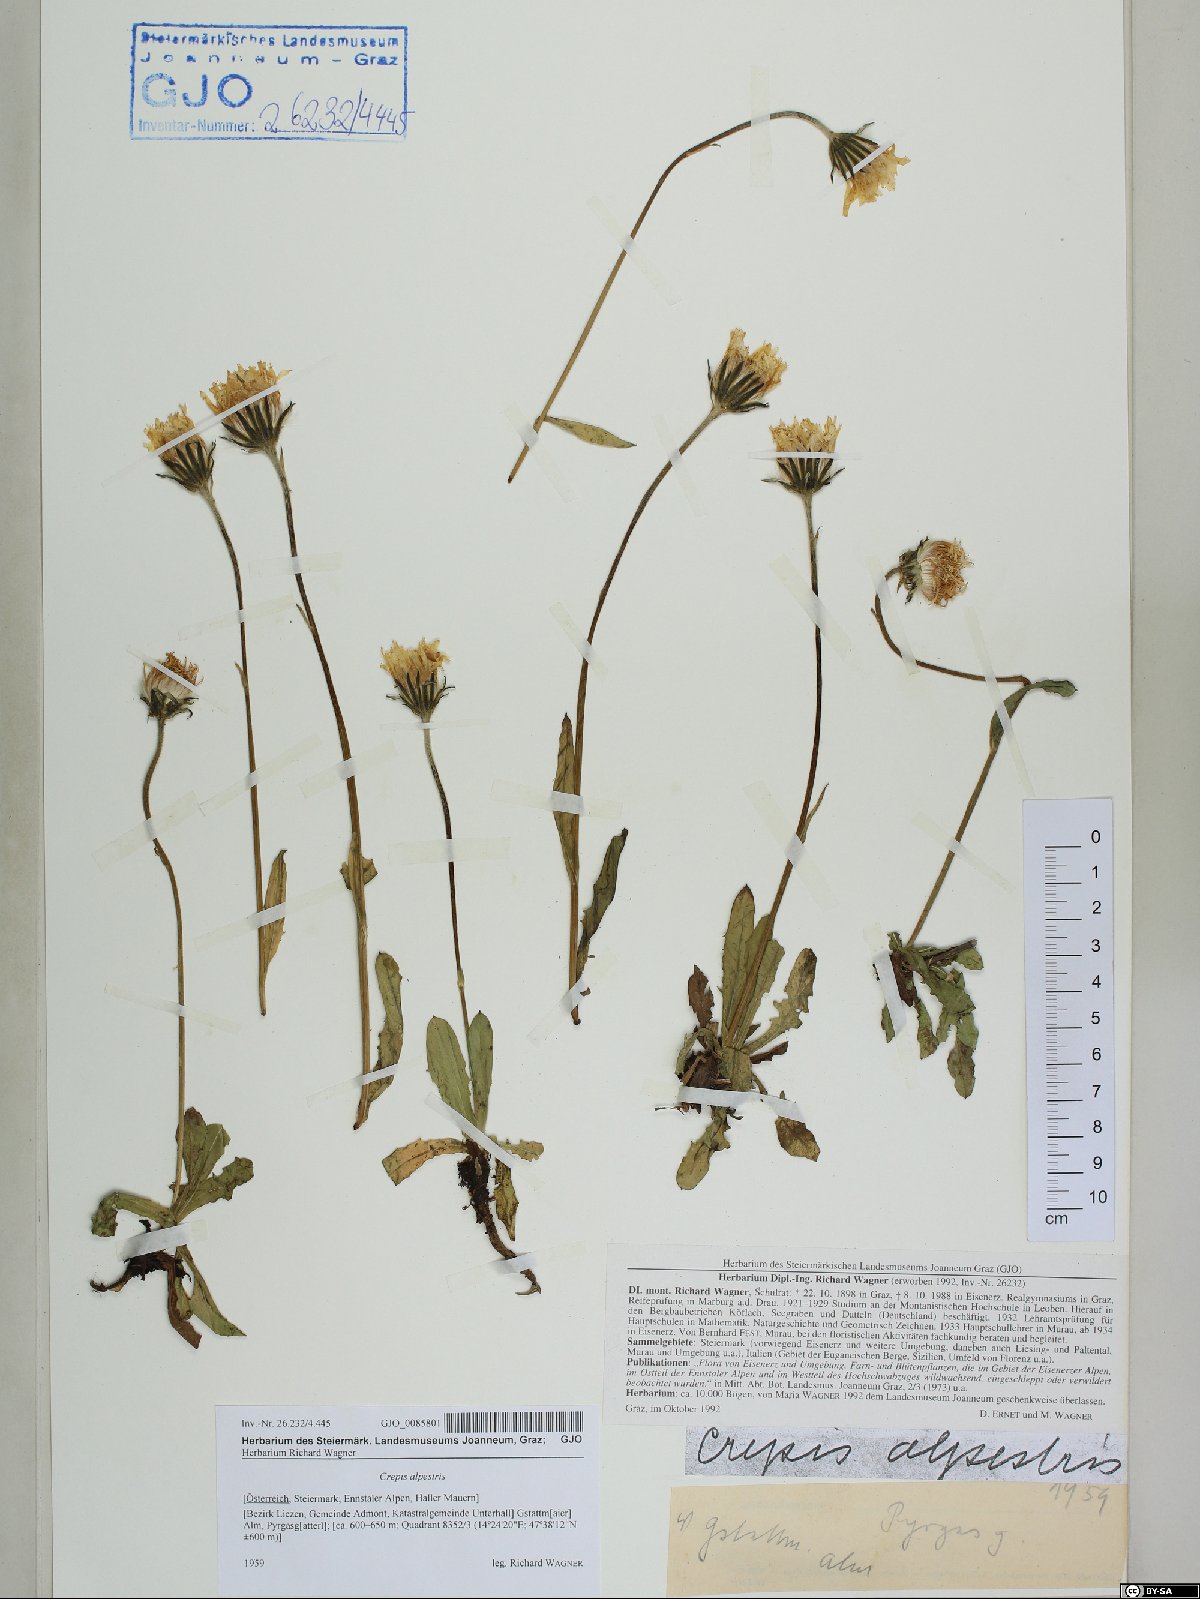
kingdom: Plantae
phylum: Tracheophyta
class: Magnoliopsida
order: Asterales
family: Asteraceae
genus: Crepis
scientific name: Crepis alpestris
